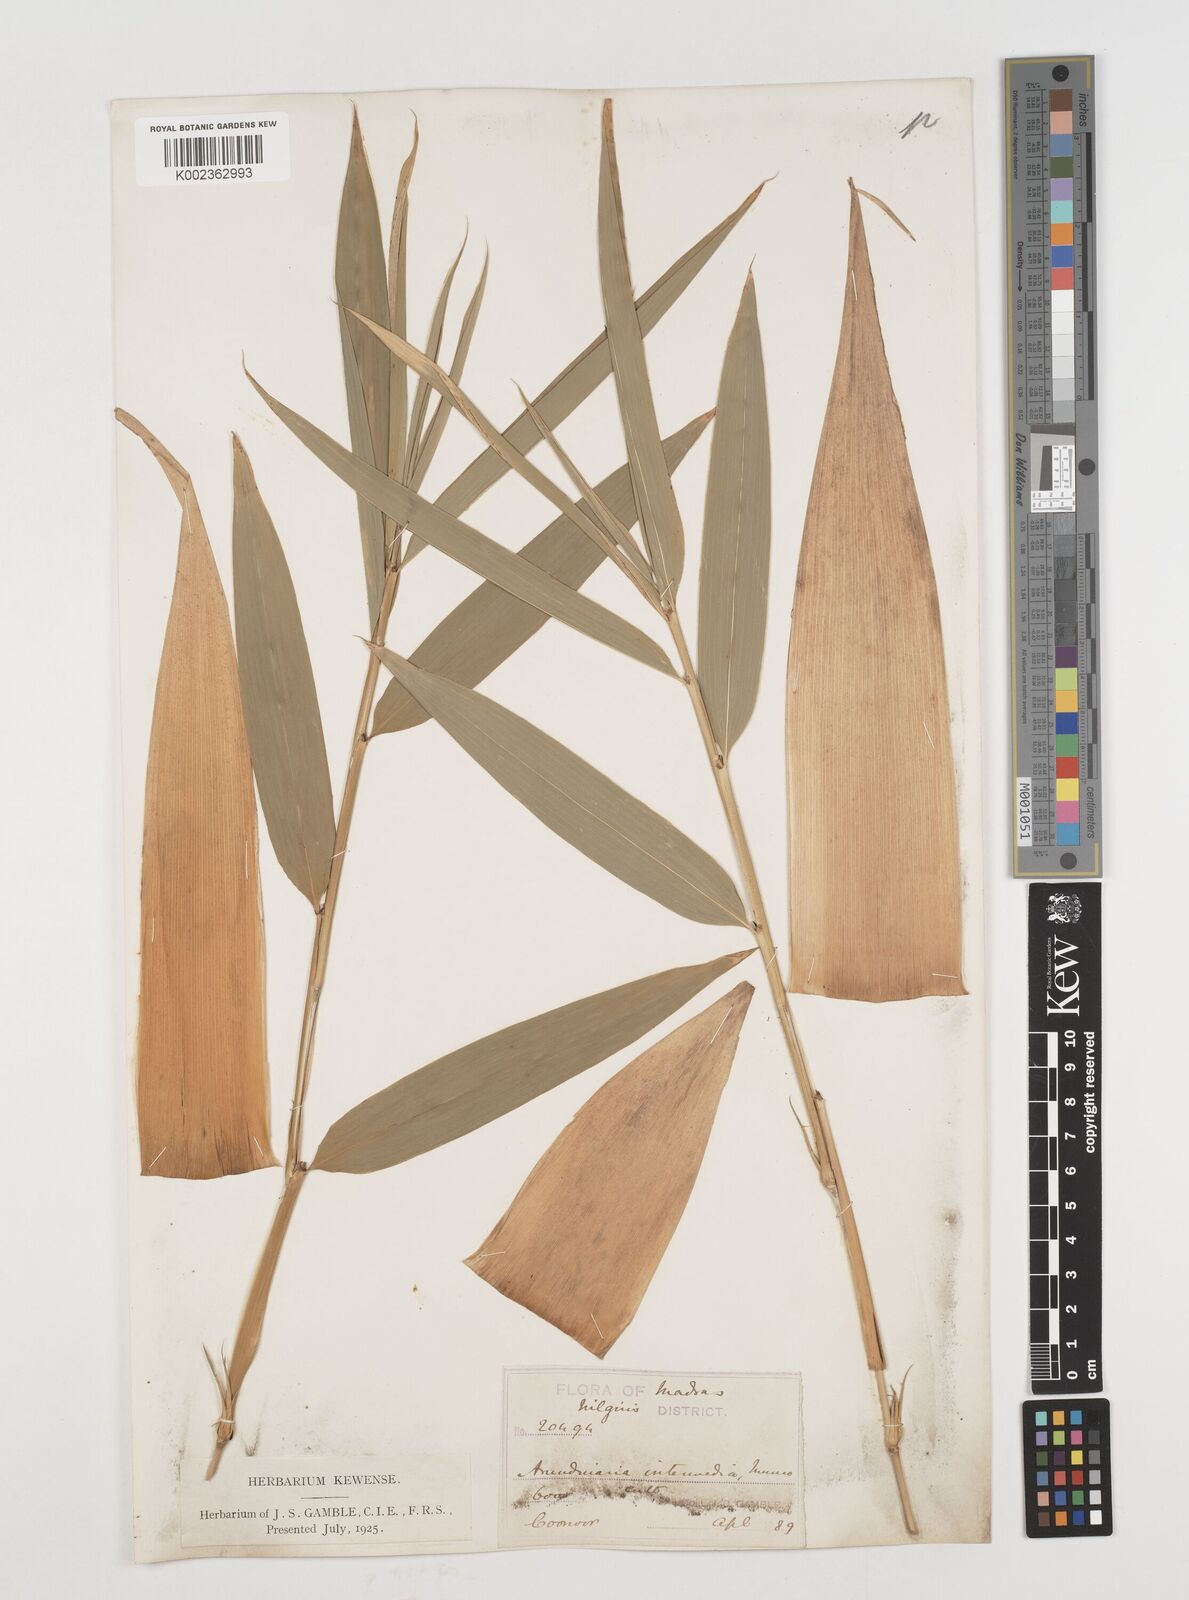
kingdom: Plantae
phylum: Tracheophyta
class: Liliopsida
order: Poales
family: Poaceae
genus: Drepanostachyum
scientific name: Drepanostachyum intermedium
